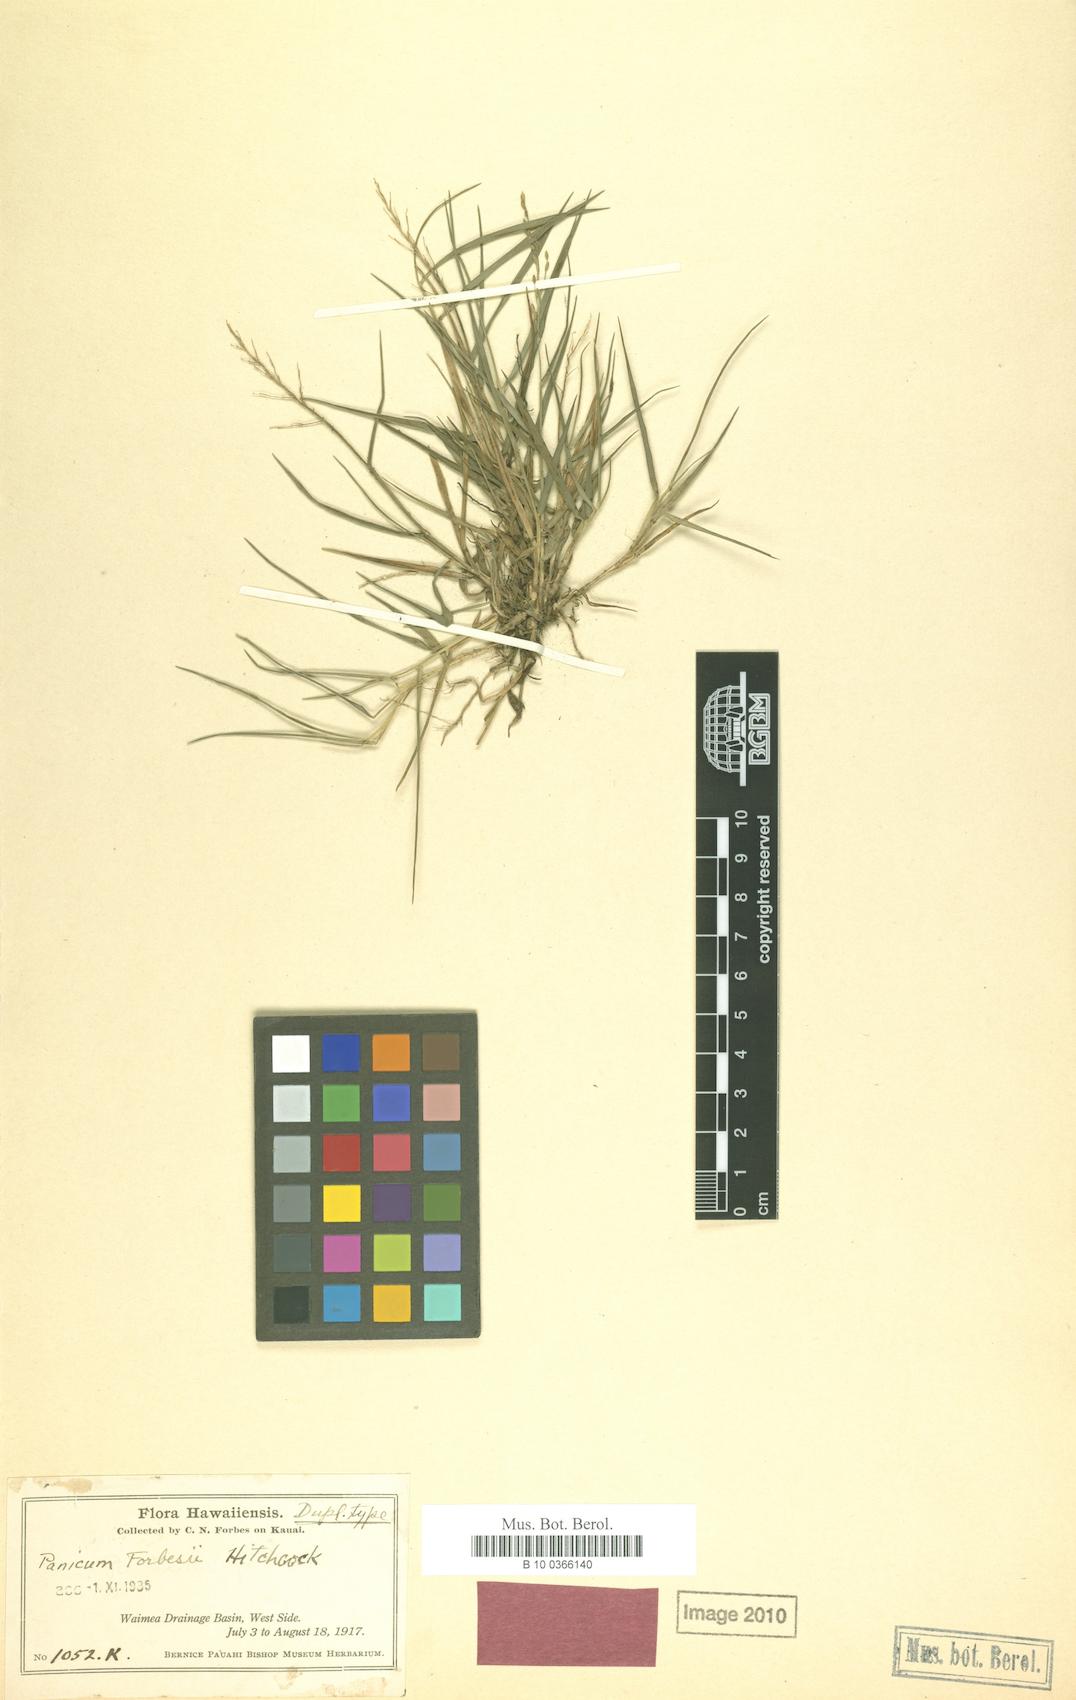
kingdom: Plantae
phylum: Tracheophyta
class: Liliopsida
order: Poales
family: Poaceae
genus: Dichanthelium
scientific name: Dichanthelium cynodon
